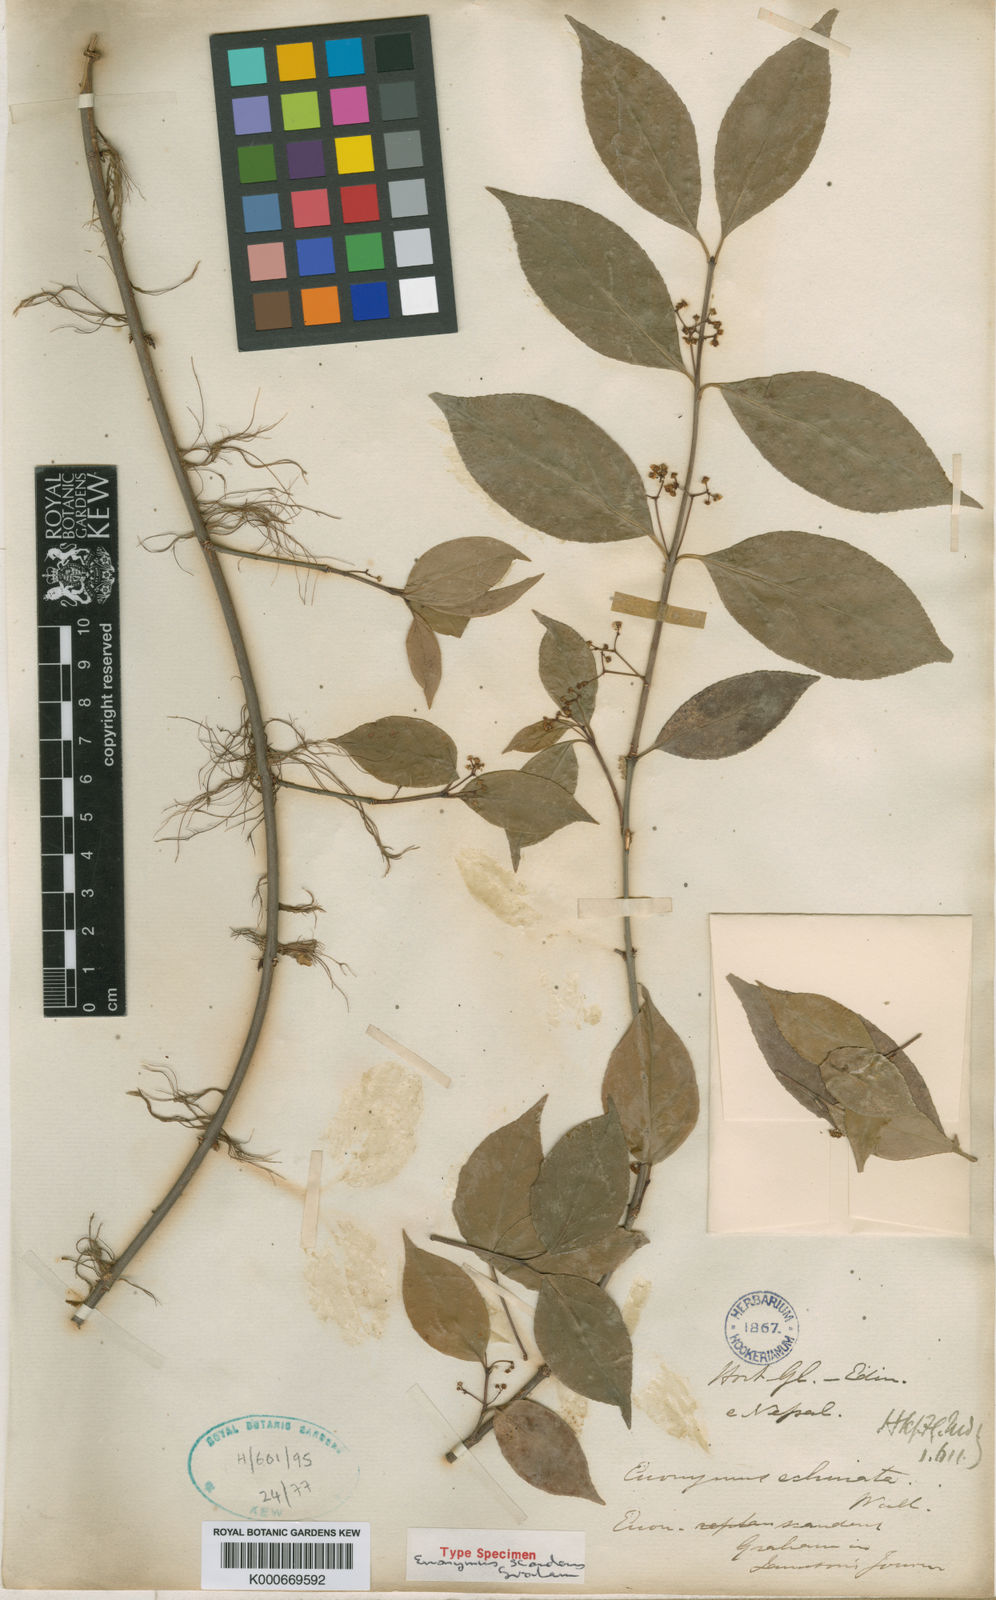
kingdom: Plantae
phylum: Tracheophyta
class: Magnoliopsida
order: Celastrales
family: Celastraceae
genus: Euonymus
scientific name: Euonymus echinatus
